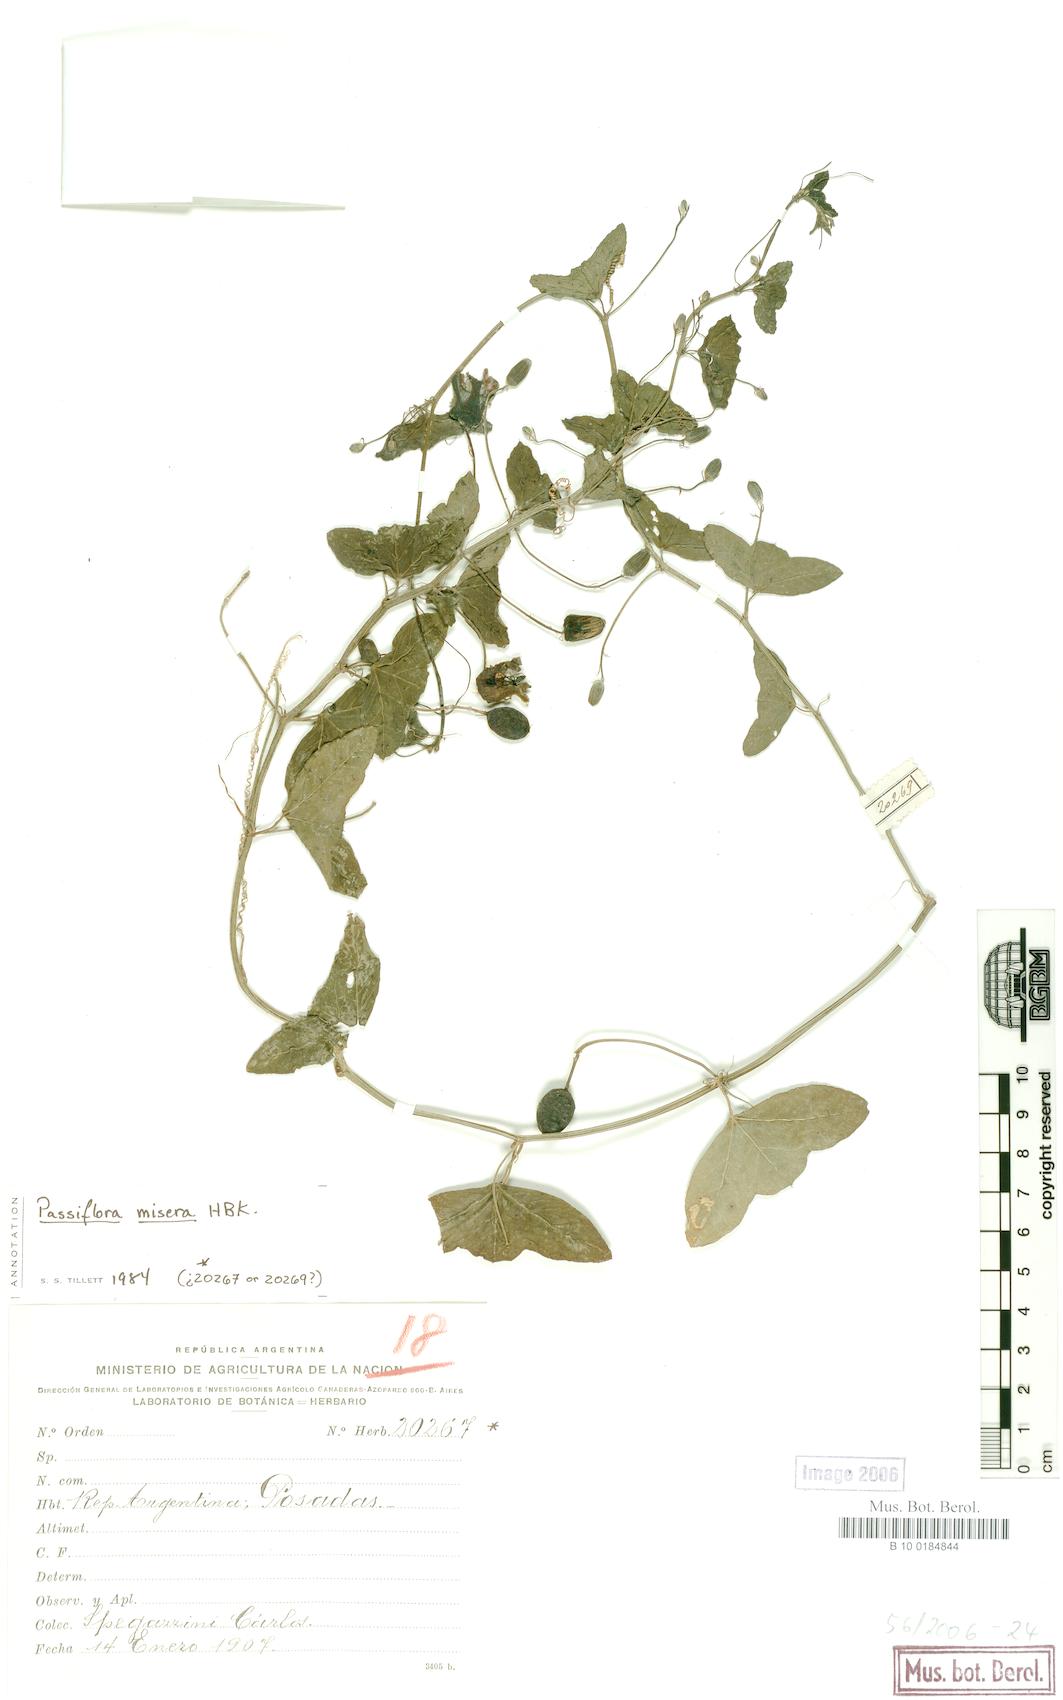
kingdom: Plantae
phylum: Tracheophyta
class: Magnoliopsida
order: Malpighiales
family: Passifloraceae
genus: Passiflora
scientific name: Passiflora misera
